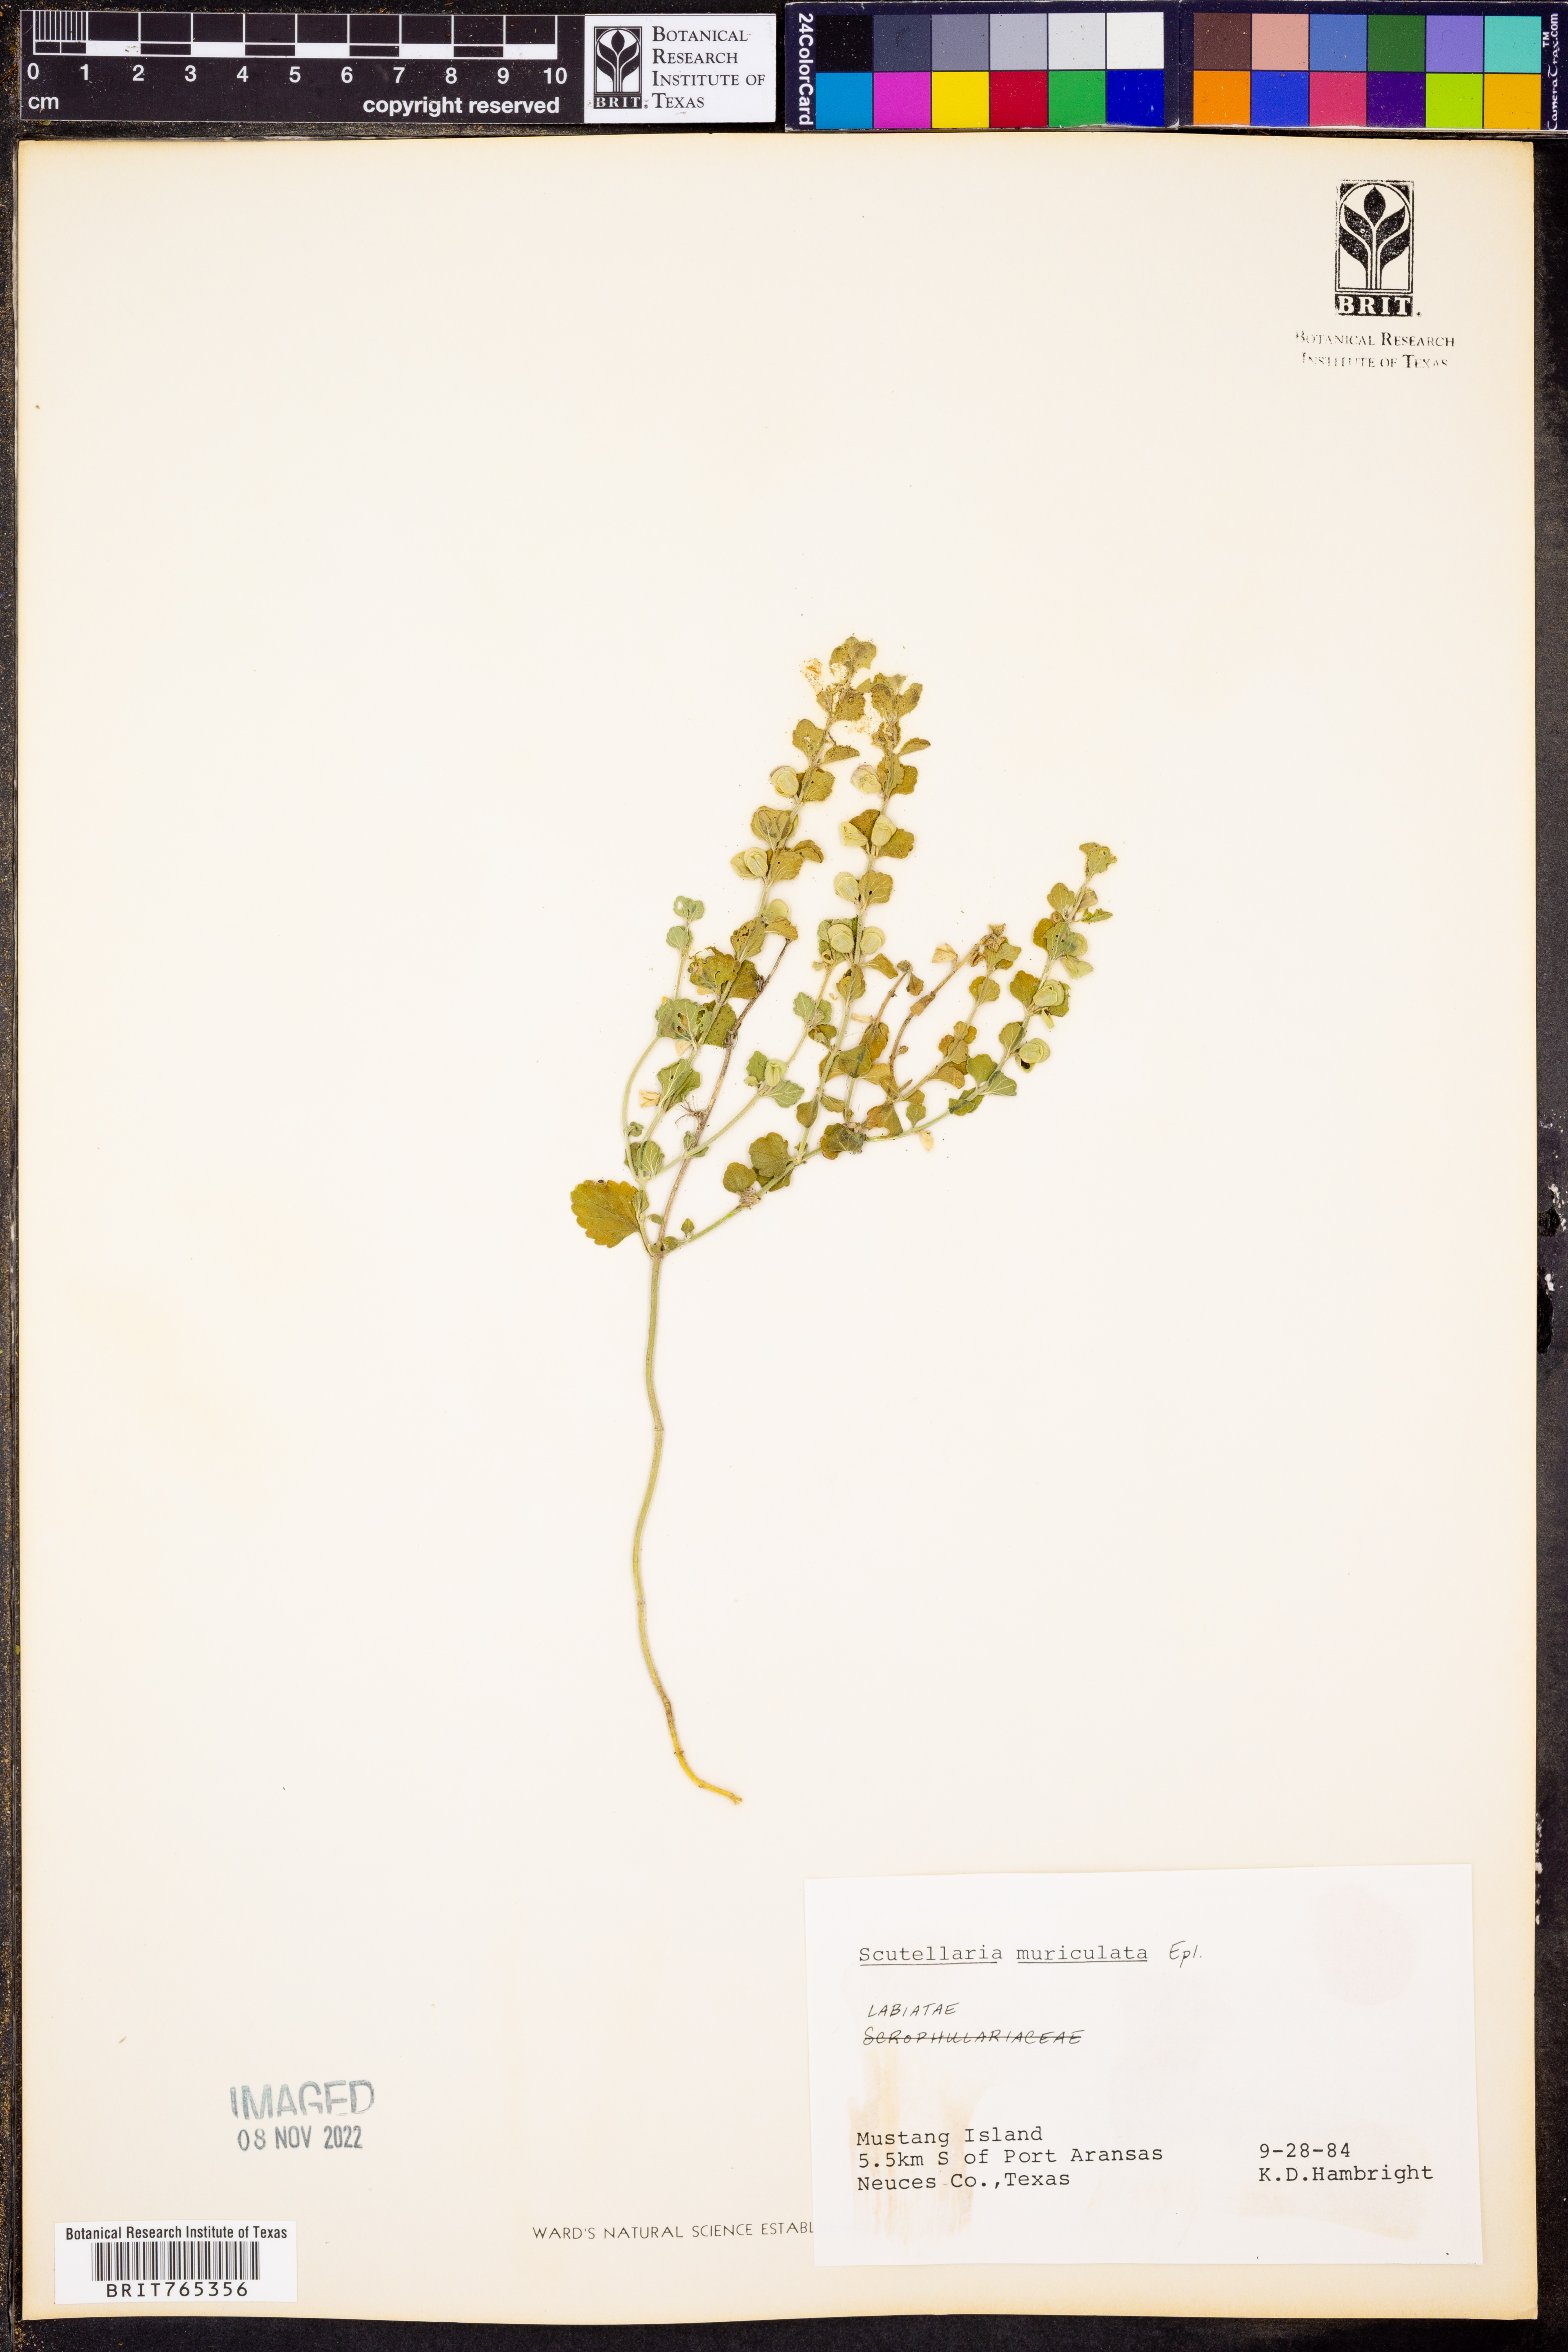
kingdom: Plantae
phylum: Tracheophyta
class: Magnoliopsida
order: Lamiales
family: Lamiaceae
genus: Scutellaria
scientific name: Scutellaria muriculata
